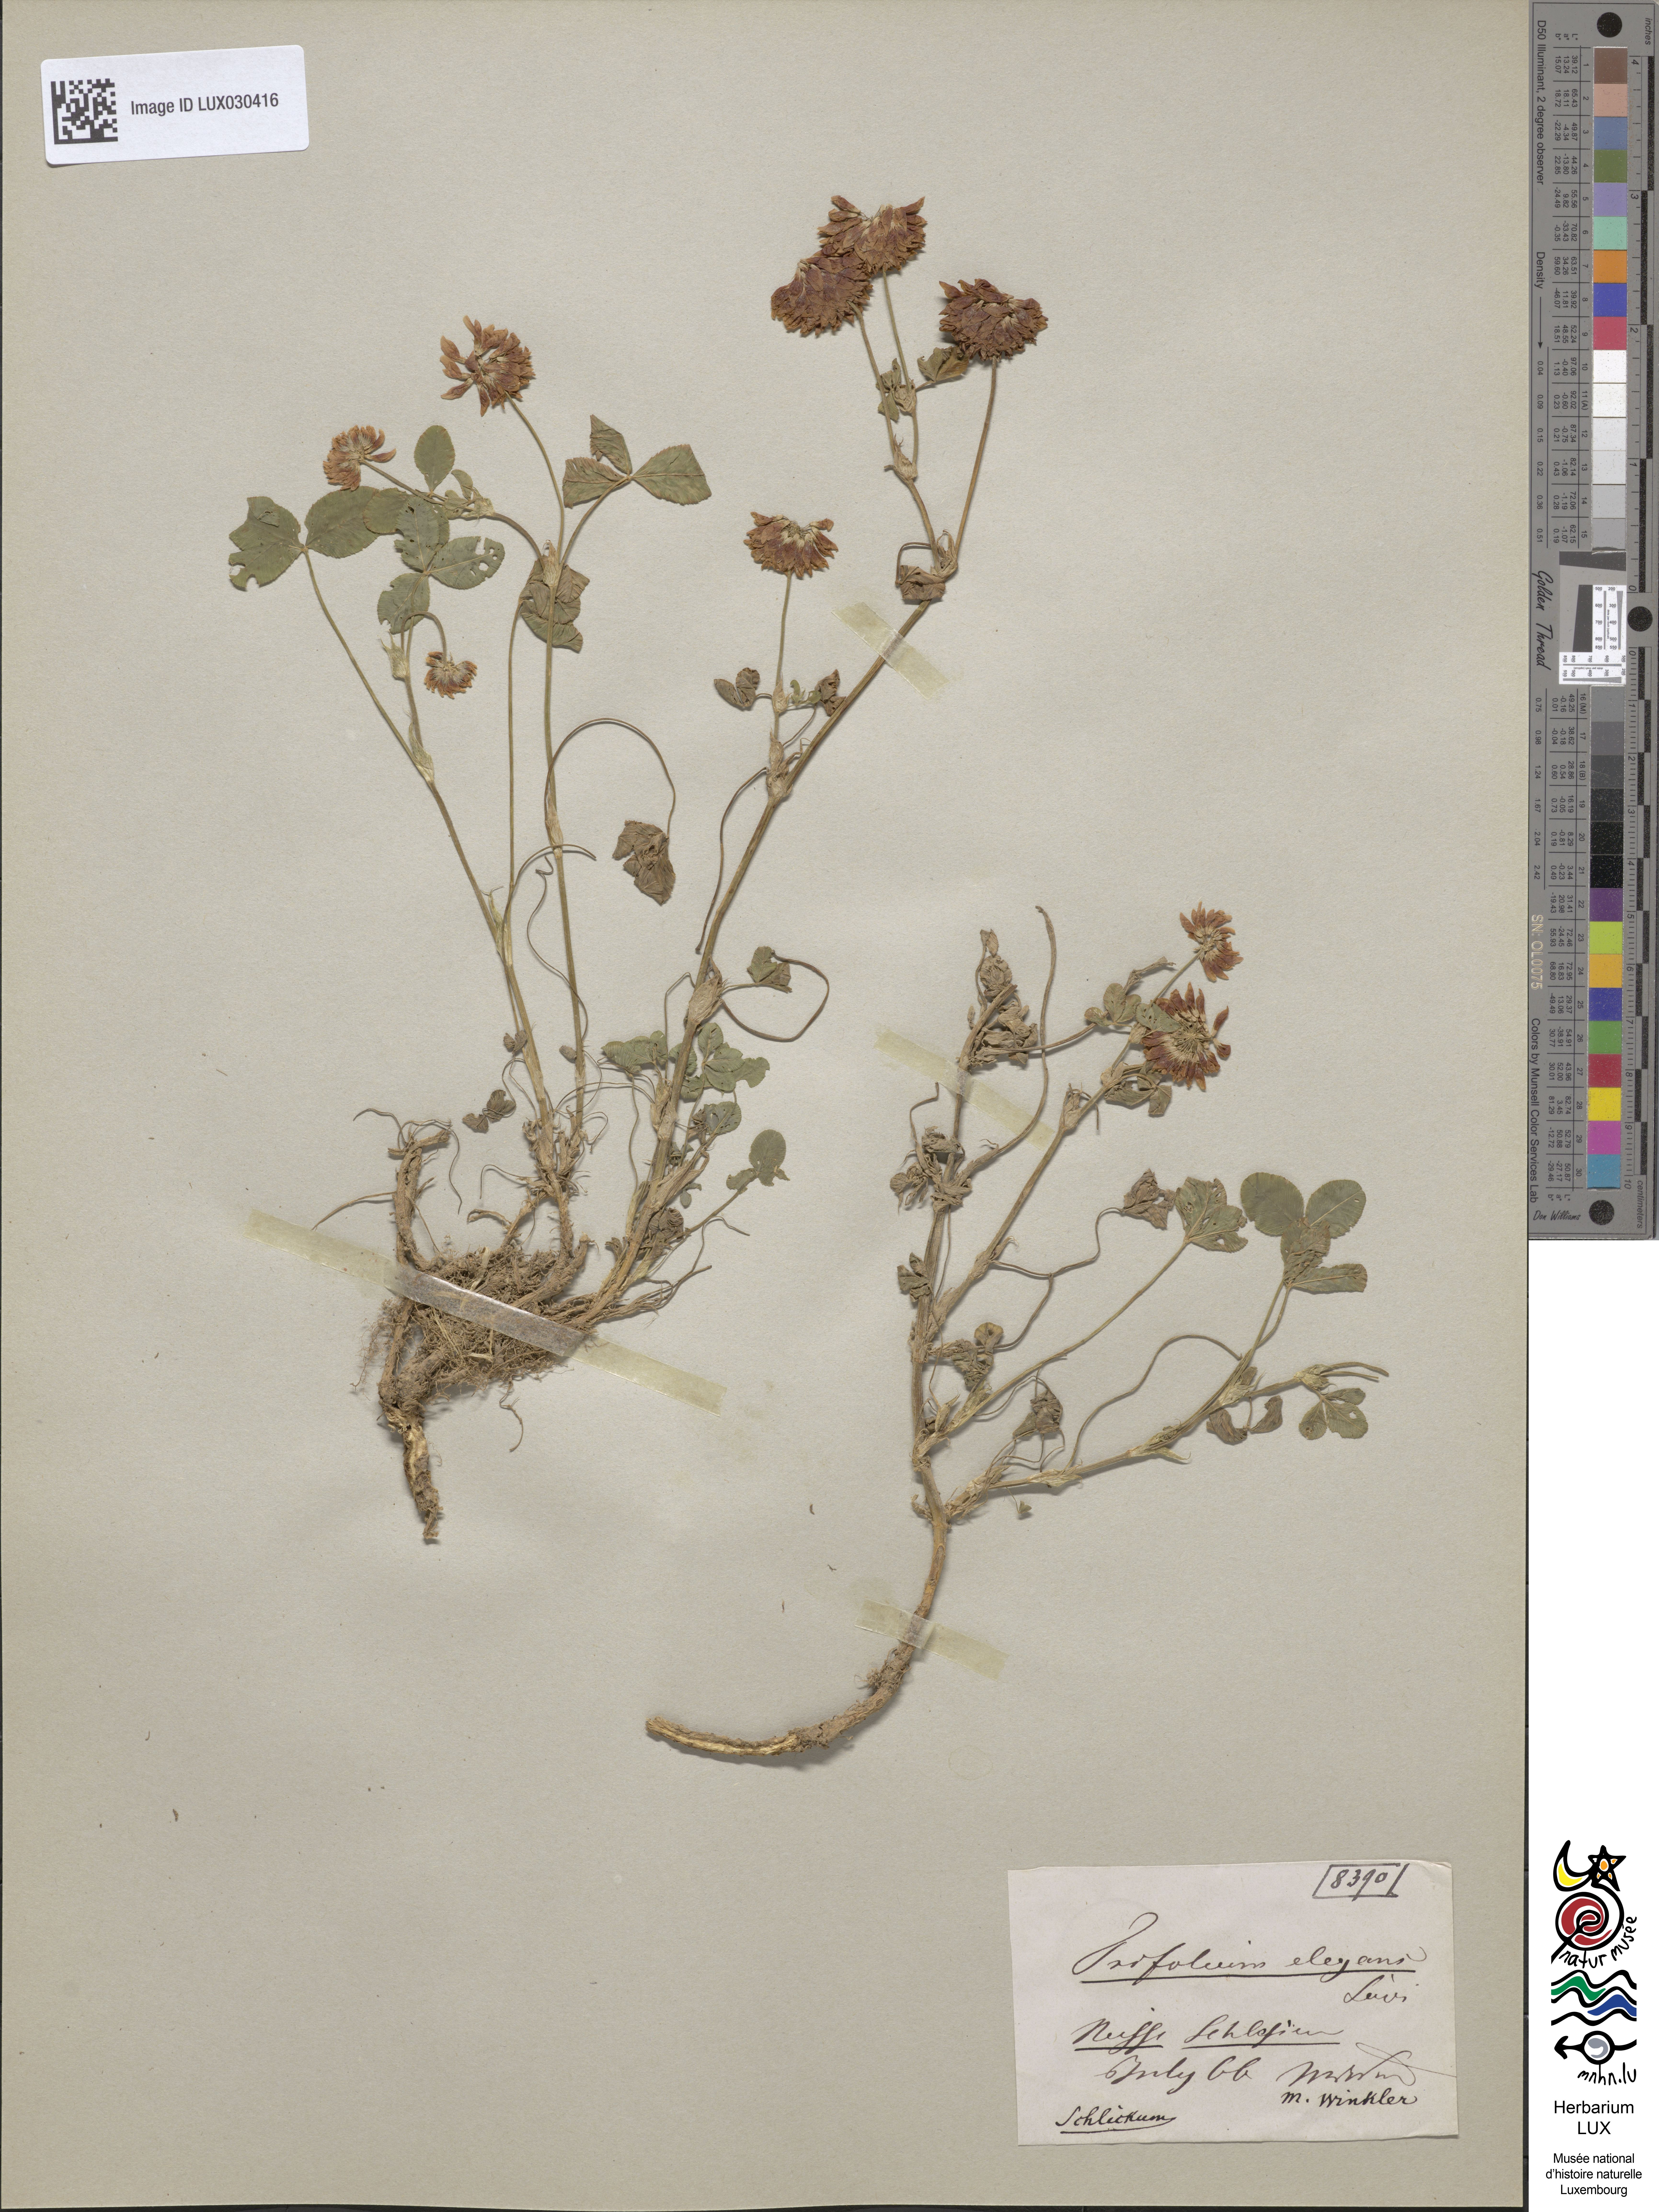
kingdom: Plantae
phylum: Tracheophyta
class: Magnoliopsida
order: Fabales
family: Fabaceae
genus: Trifolium
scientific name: Trifolium hybridum
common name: Alsike clover
